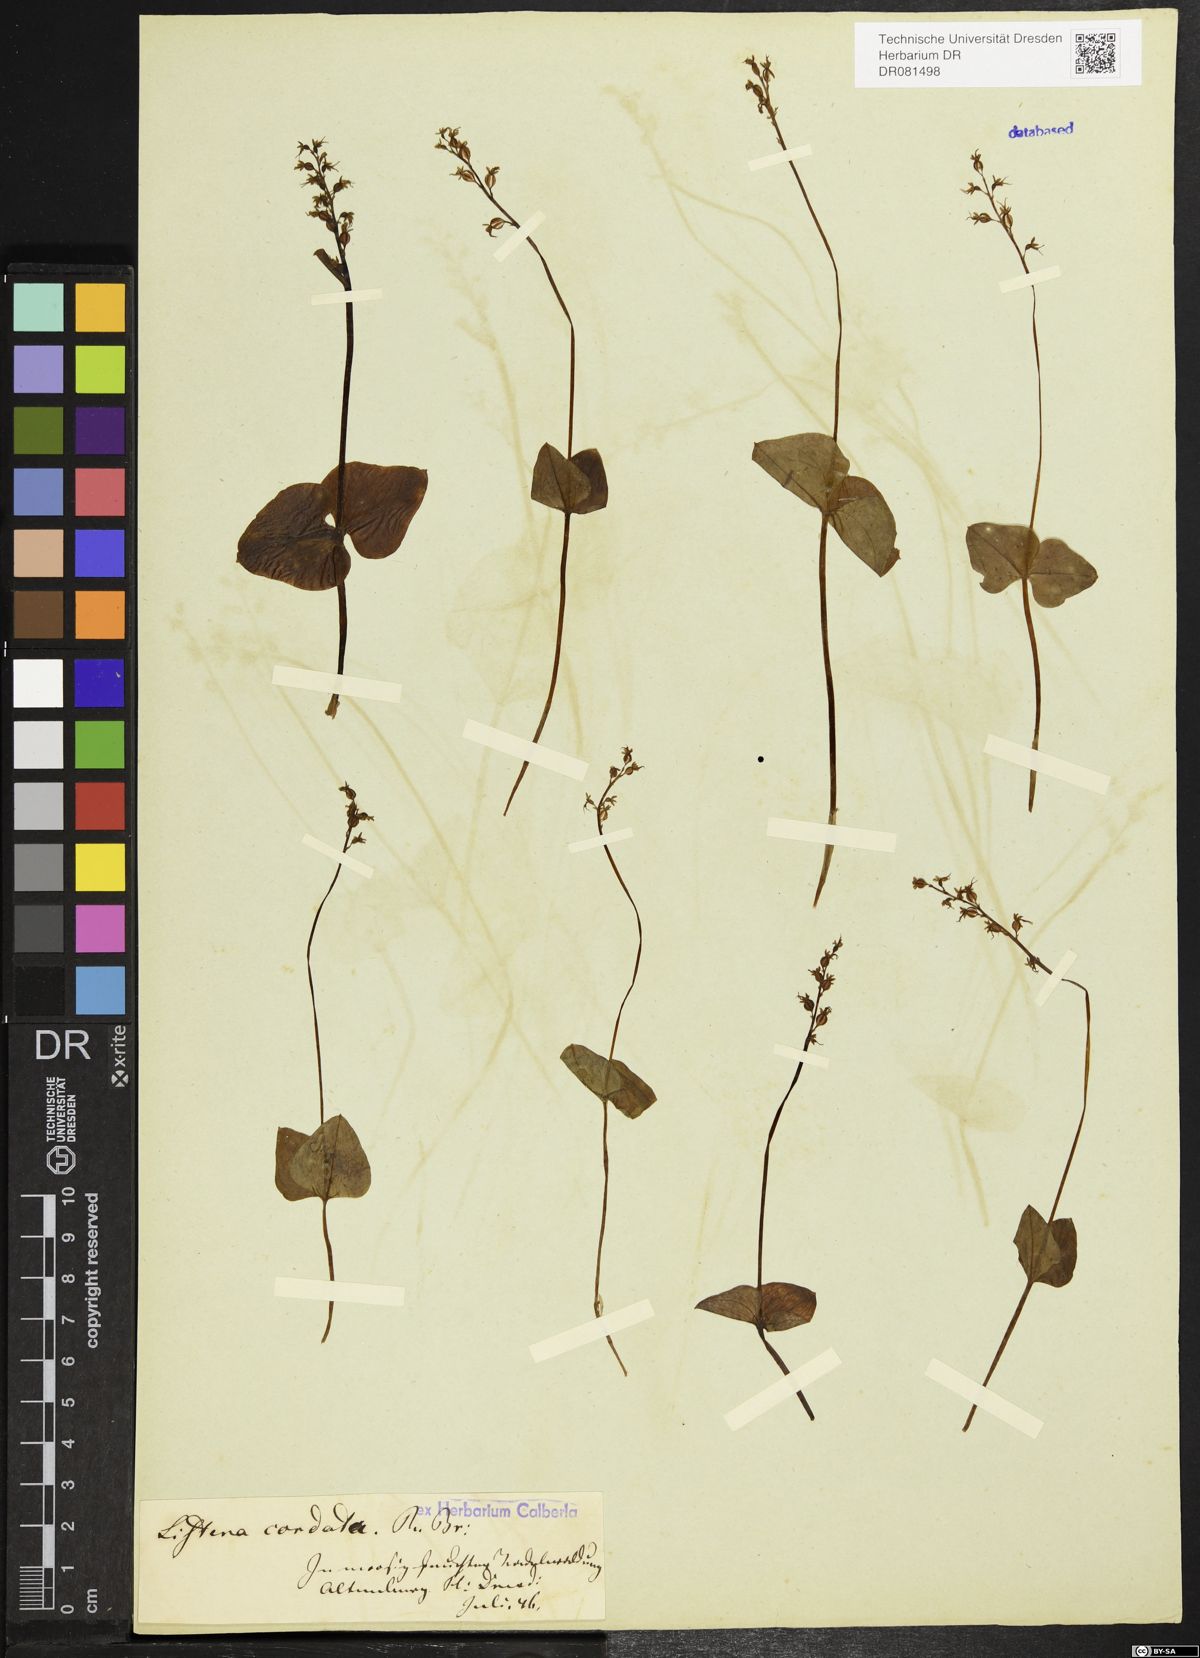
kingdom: Plantae
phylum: Tracheophyta
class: Liliopsida
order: Asparagales
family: Orchidaceae
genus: Neottia
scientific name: Neottia cordata
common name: Lesser twayblade
